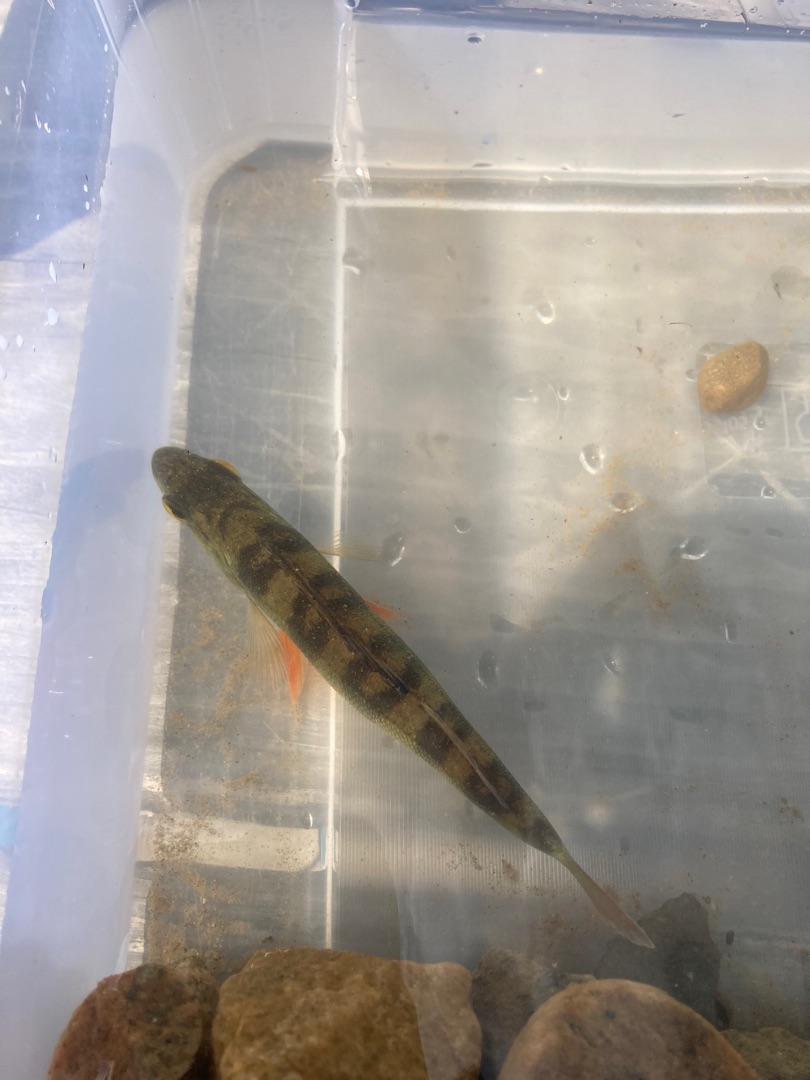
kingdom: Animalia
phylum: Chordata
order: Perciformes
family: Percidae
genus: Perca
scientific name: Perca fluviatilis
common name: Aborre
